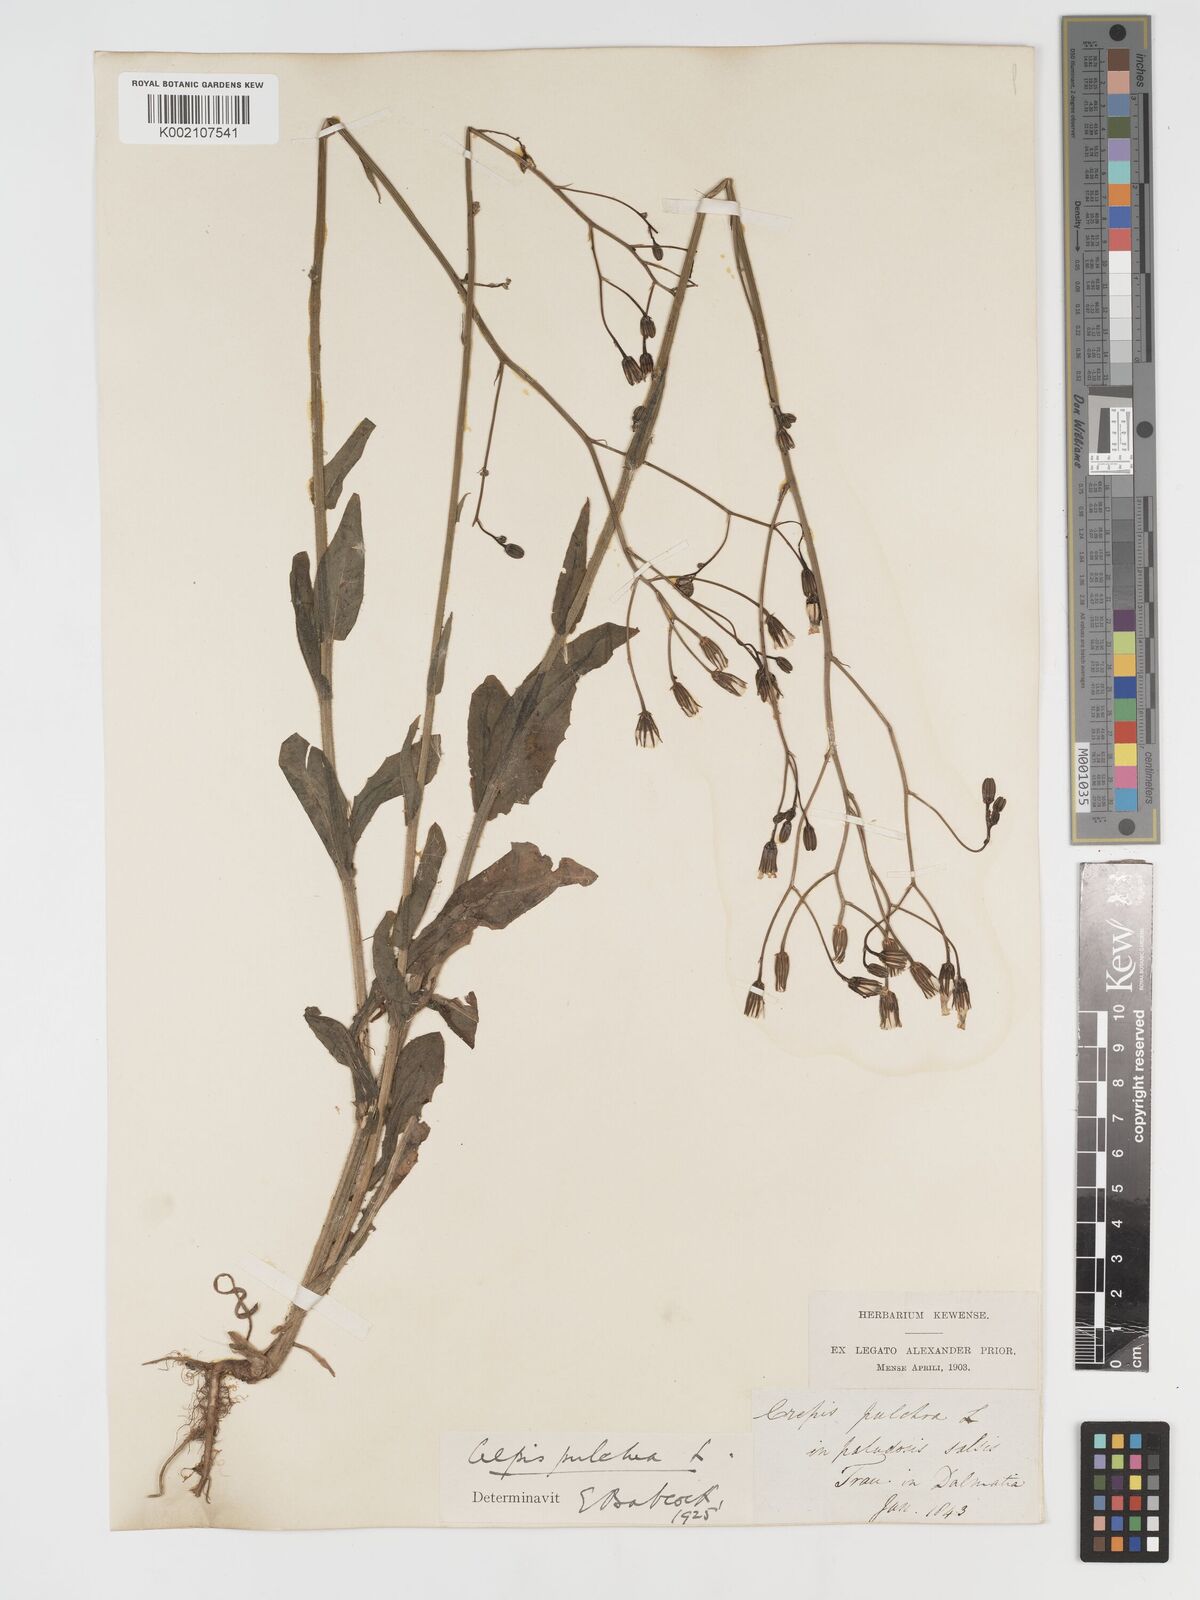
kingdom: Plantae
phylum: Tracheophyta
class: Magnoliopsida
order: Asterales
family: Asteraceae
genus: Crepis
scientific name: Crepis pulchra
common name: Hawk's-beard
